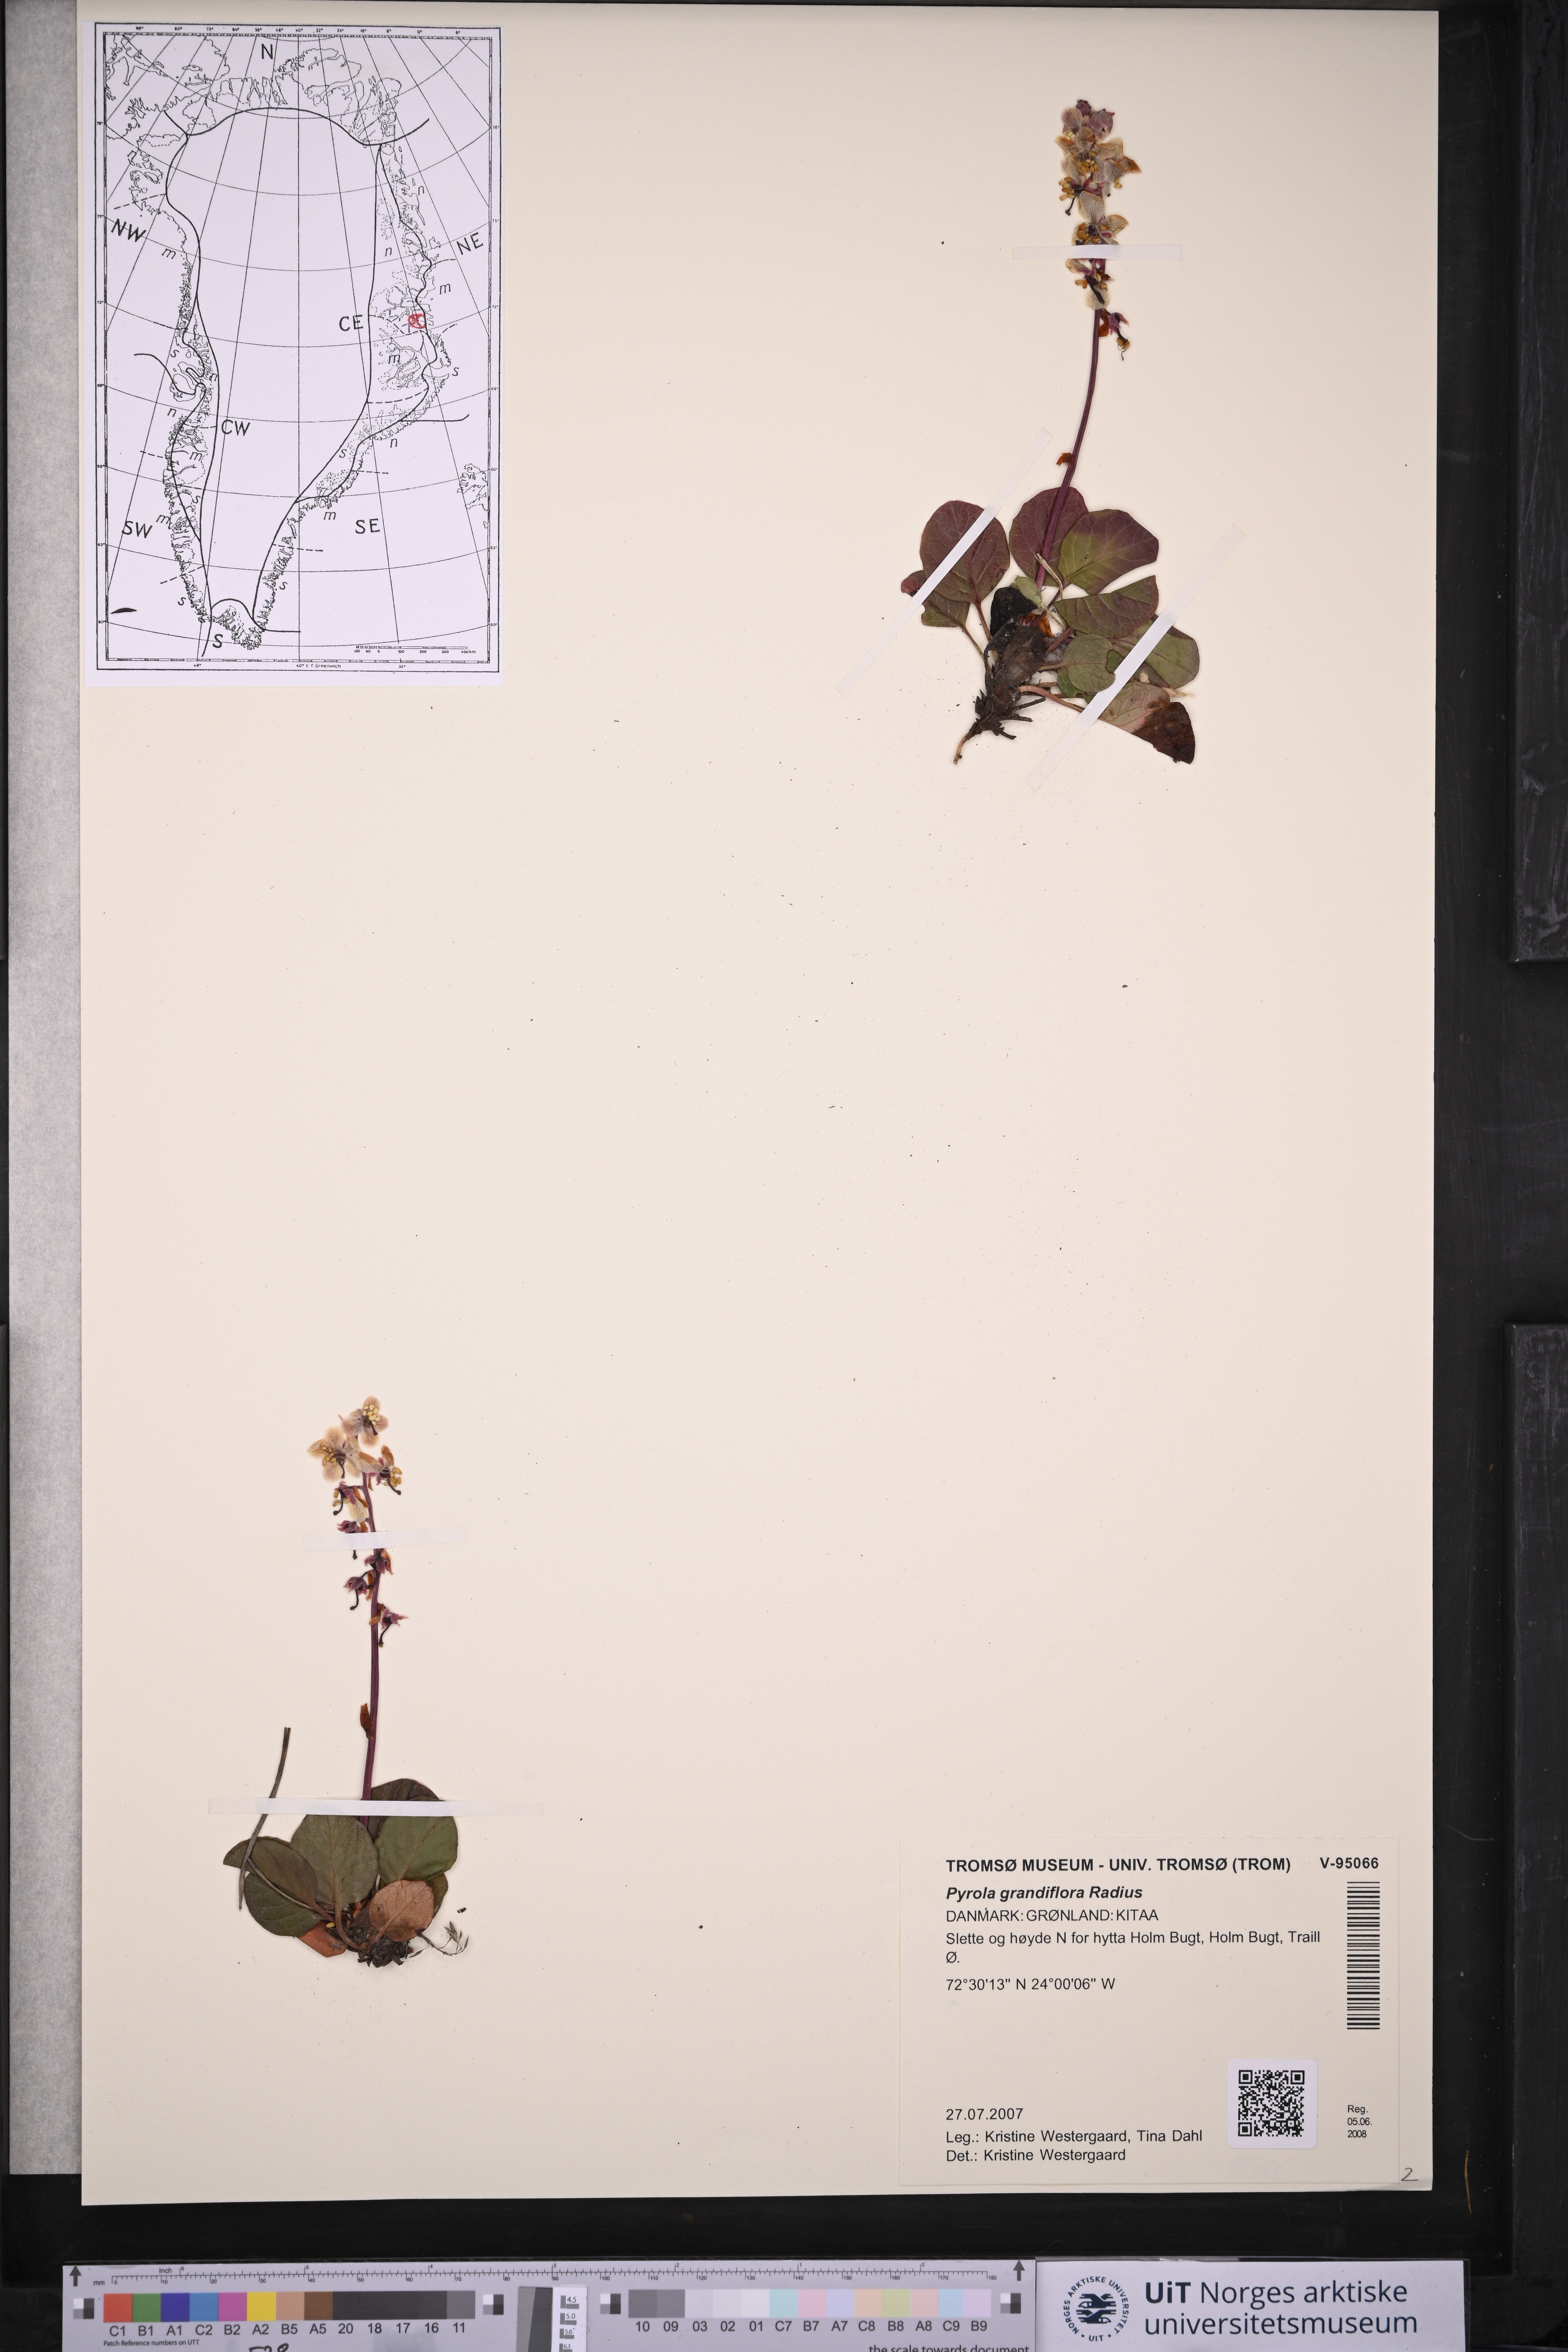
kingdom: Plantae
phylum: Tracheophyta
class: Magnoliopsida
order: Ericales
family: Ericaceae
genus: Pyrola
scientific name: Pyrola grandiflora
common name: Arctic pyrola
